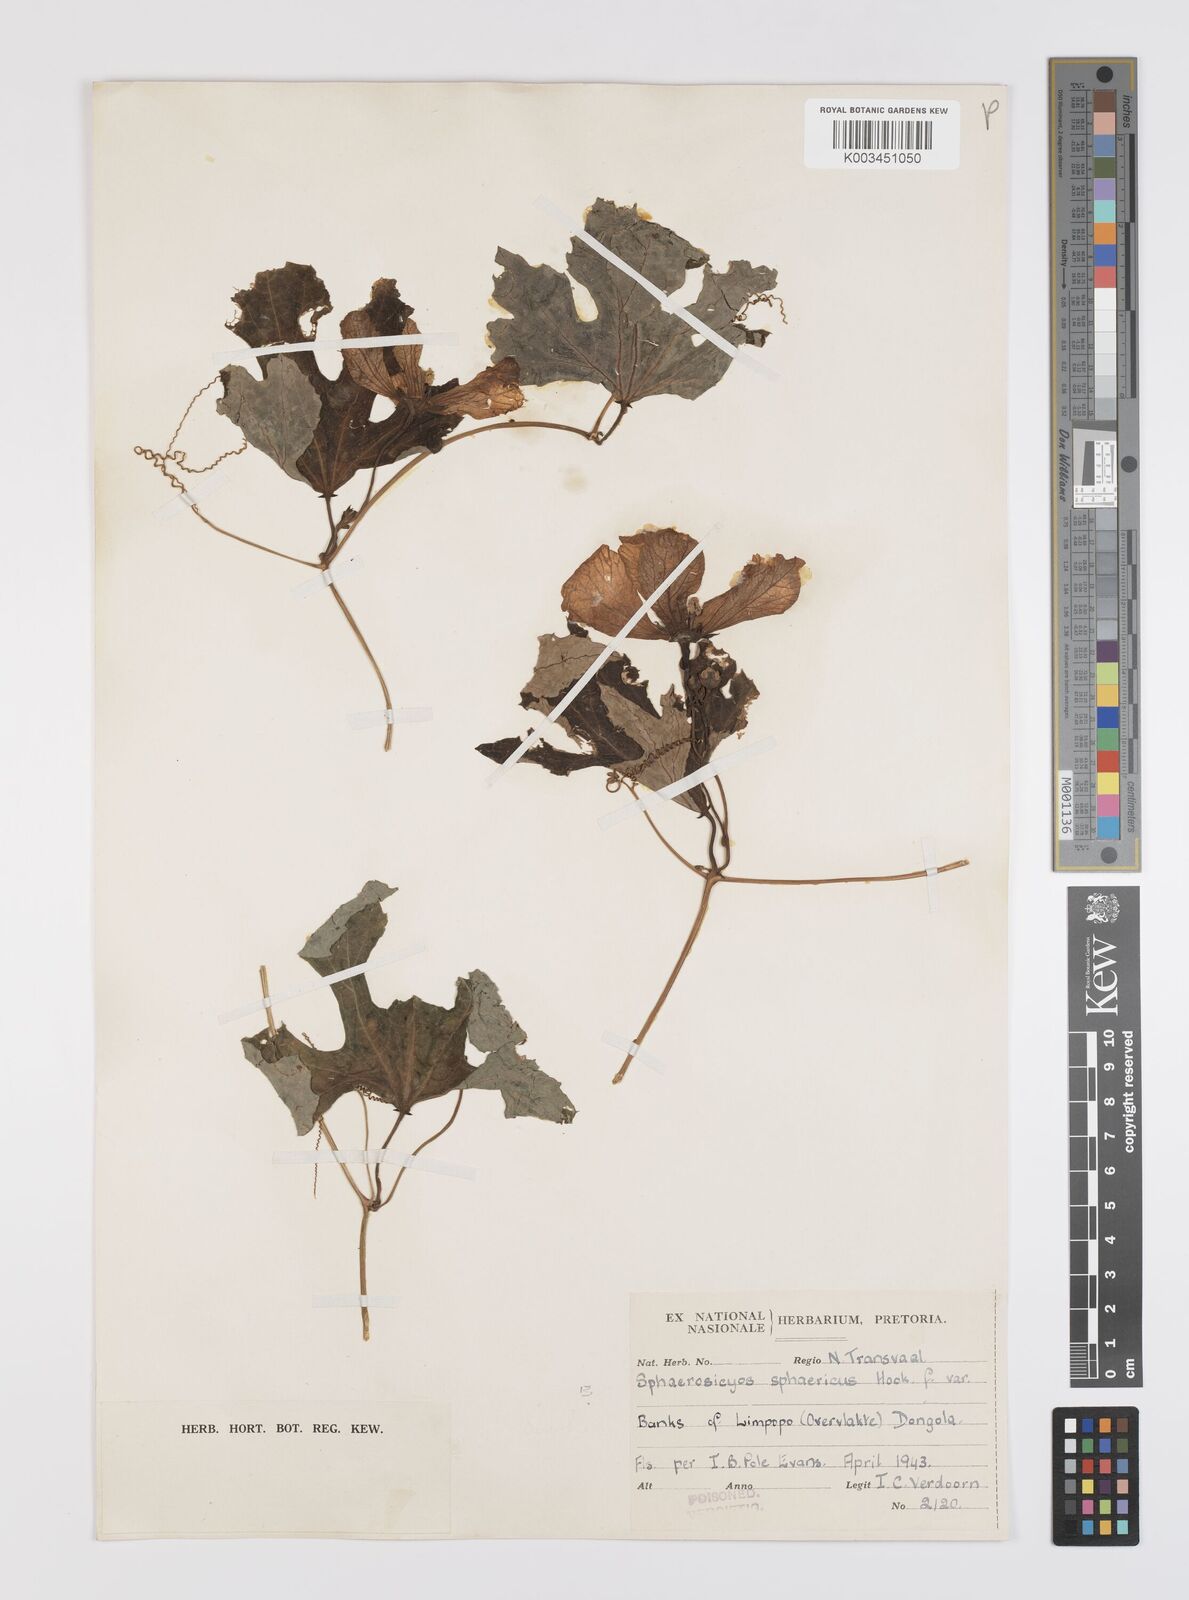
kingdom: Plantae
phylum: Tracheophyta
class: Magnoliopsida
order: Cucurbitales
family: Cucurbitaceae
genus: Lagenaria
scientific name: Lagenaria sphaerica
